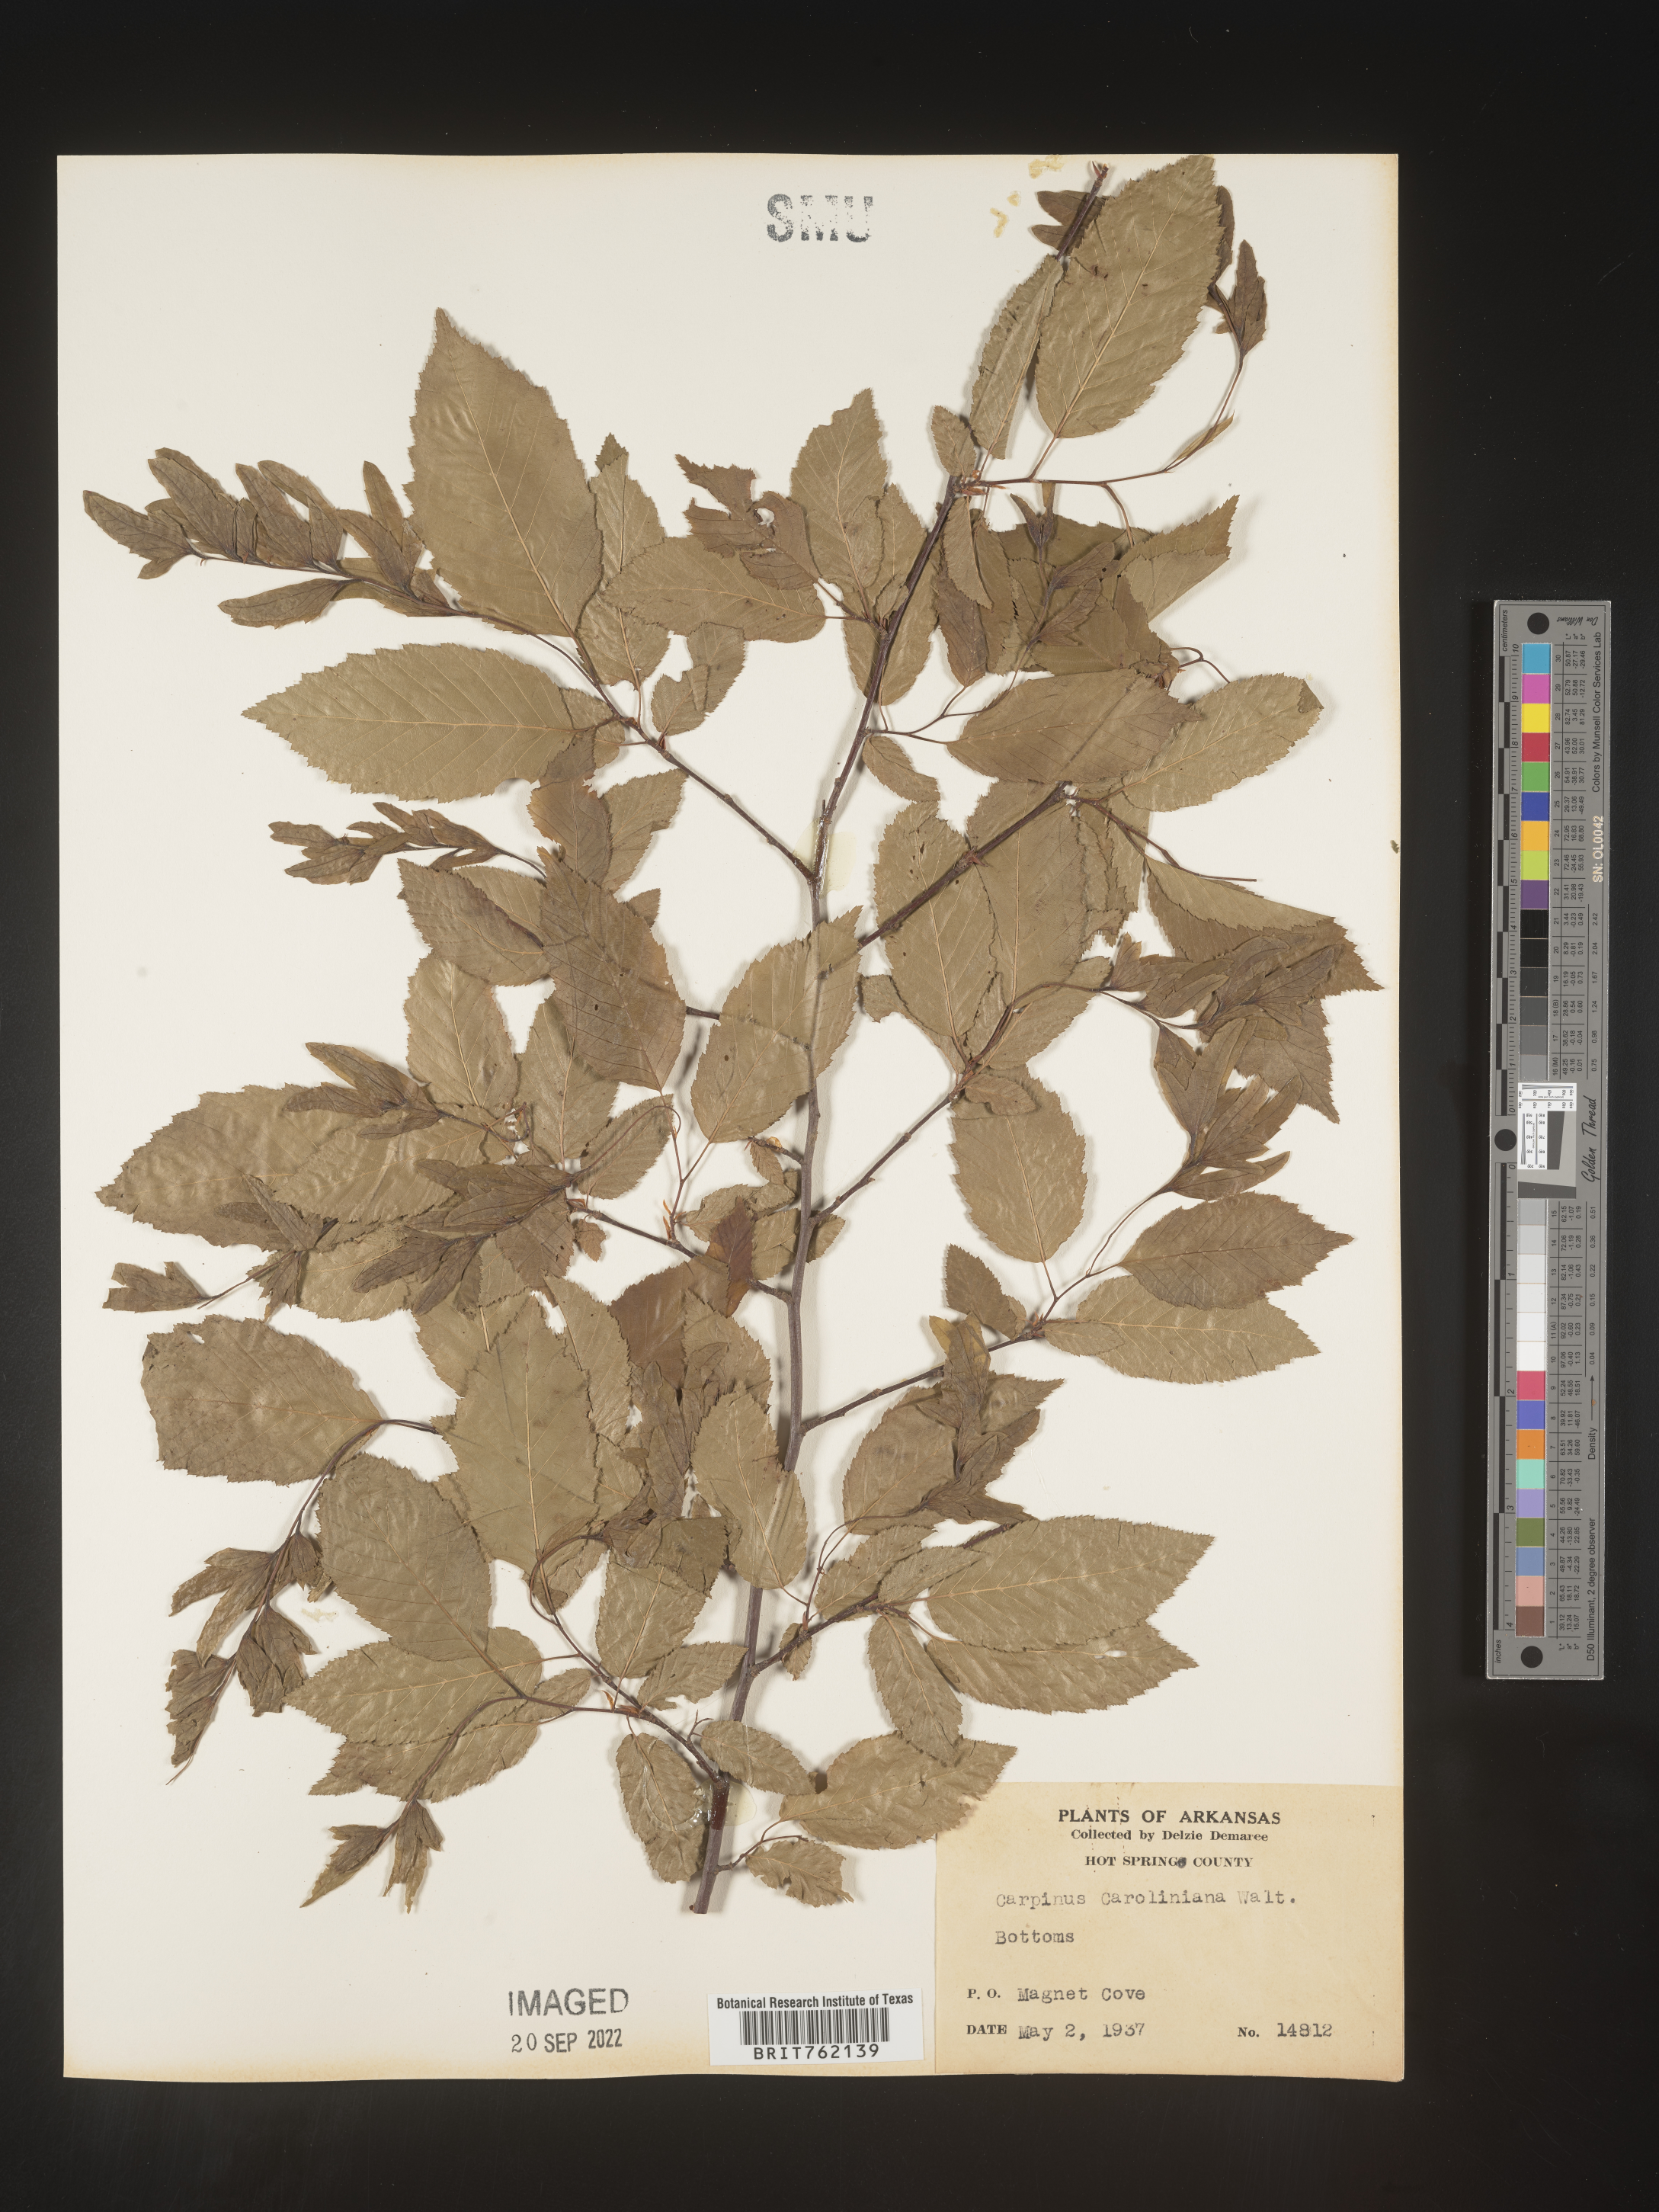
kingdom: Plantae
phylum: Tracheophyta
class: Magnoliopsida
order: Fagales
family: Betulaceae
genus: Carpinus
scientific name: Carpinus caroliniana
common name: American hornbeam
